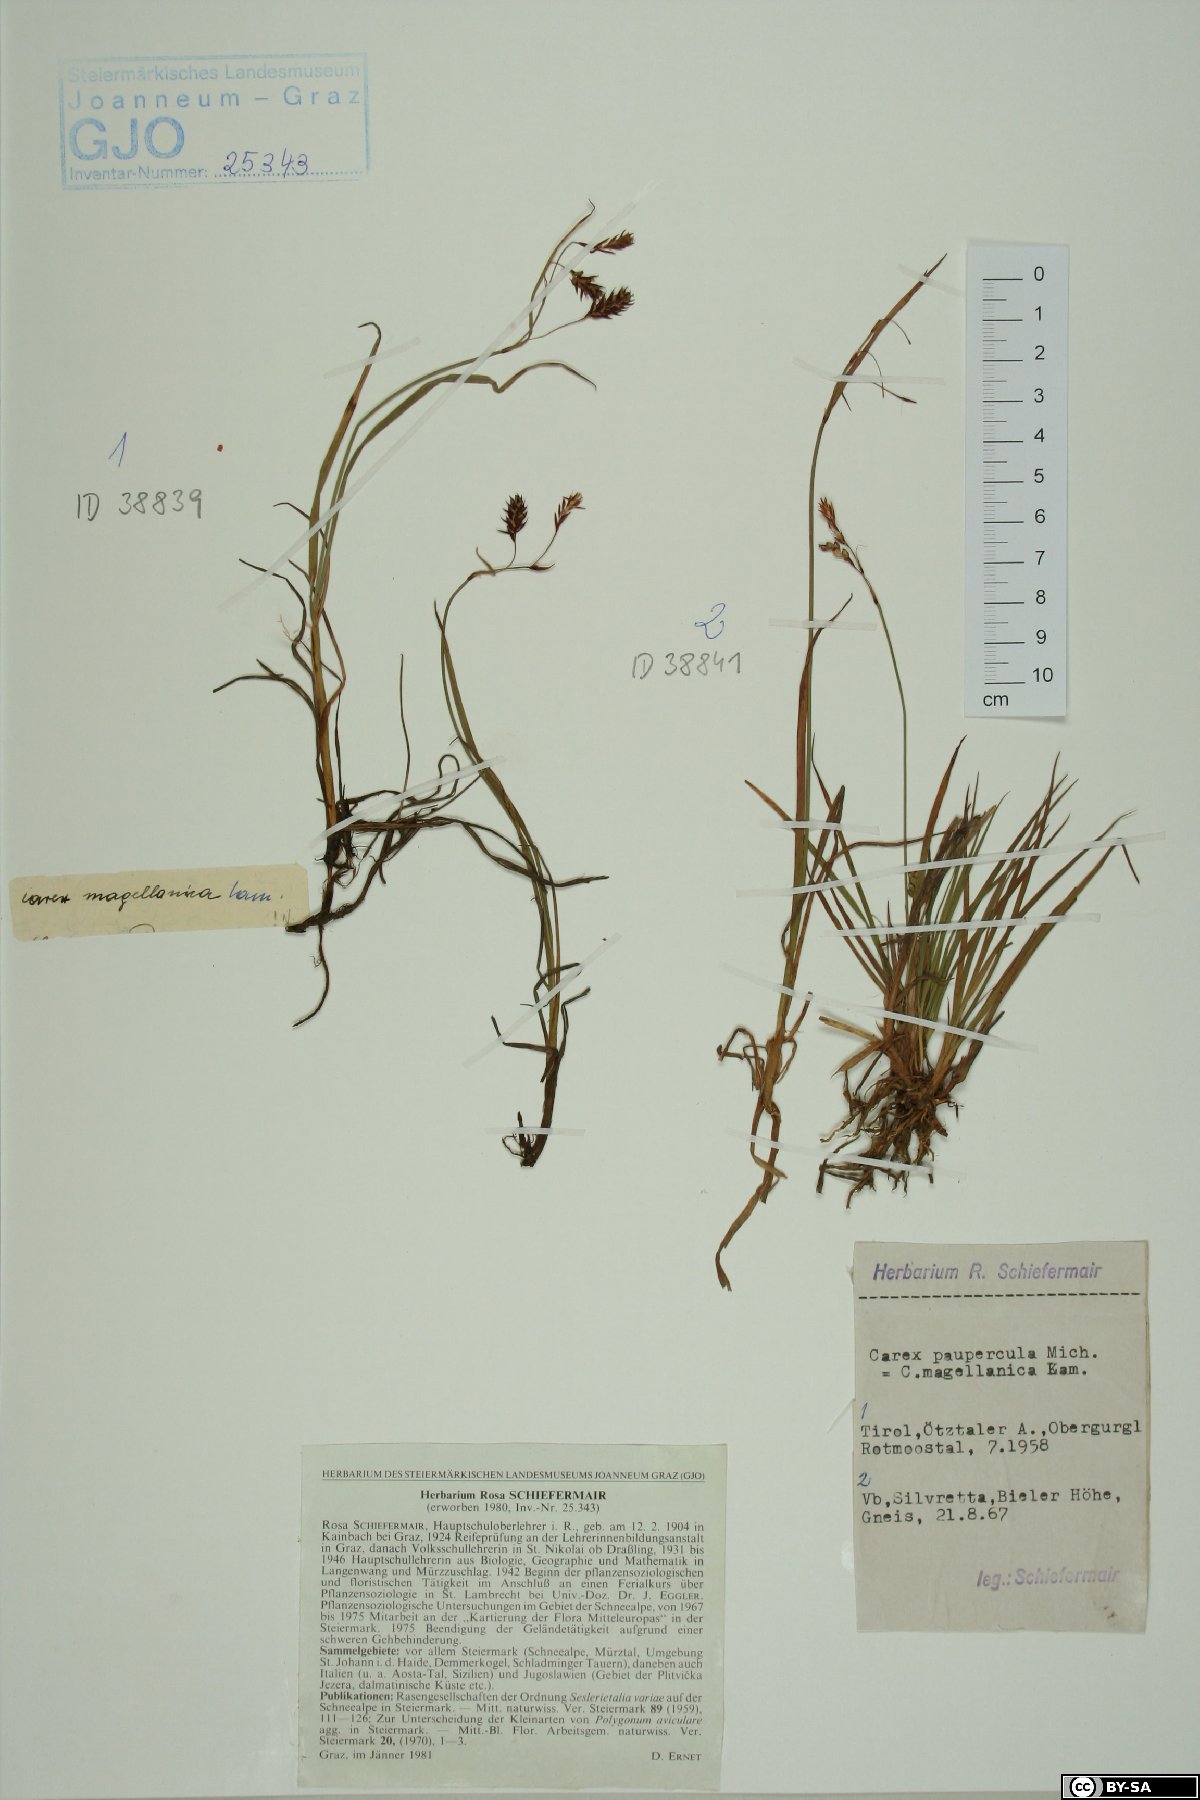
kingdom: Plantae
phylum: Tracheophyta
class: Liliopsida
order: Poales
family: Cyperaceae
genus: Carex
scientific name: Carex magellanica
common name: Bog sedge
